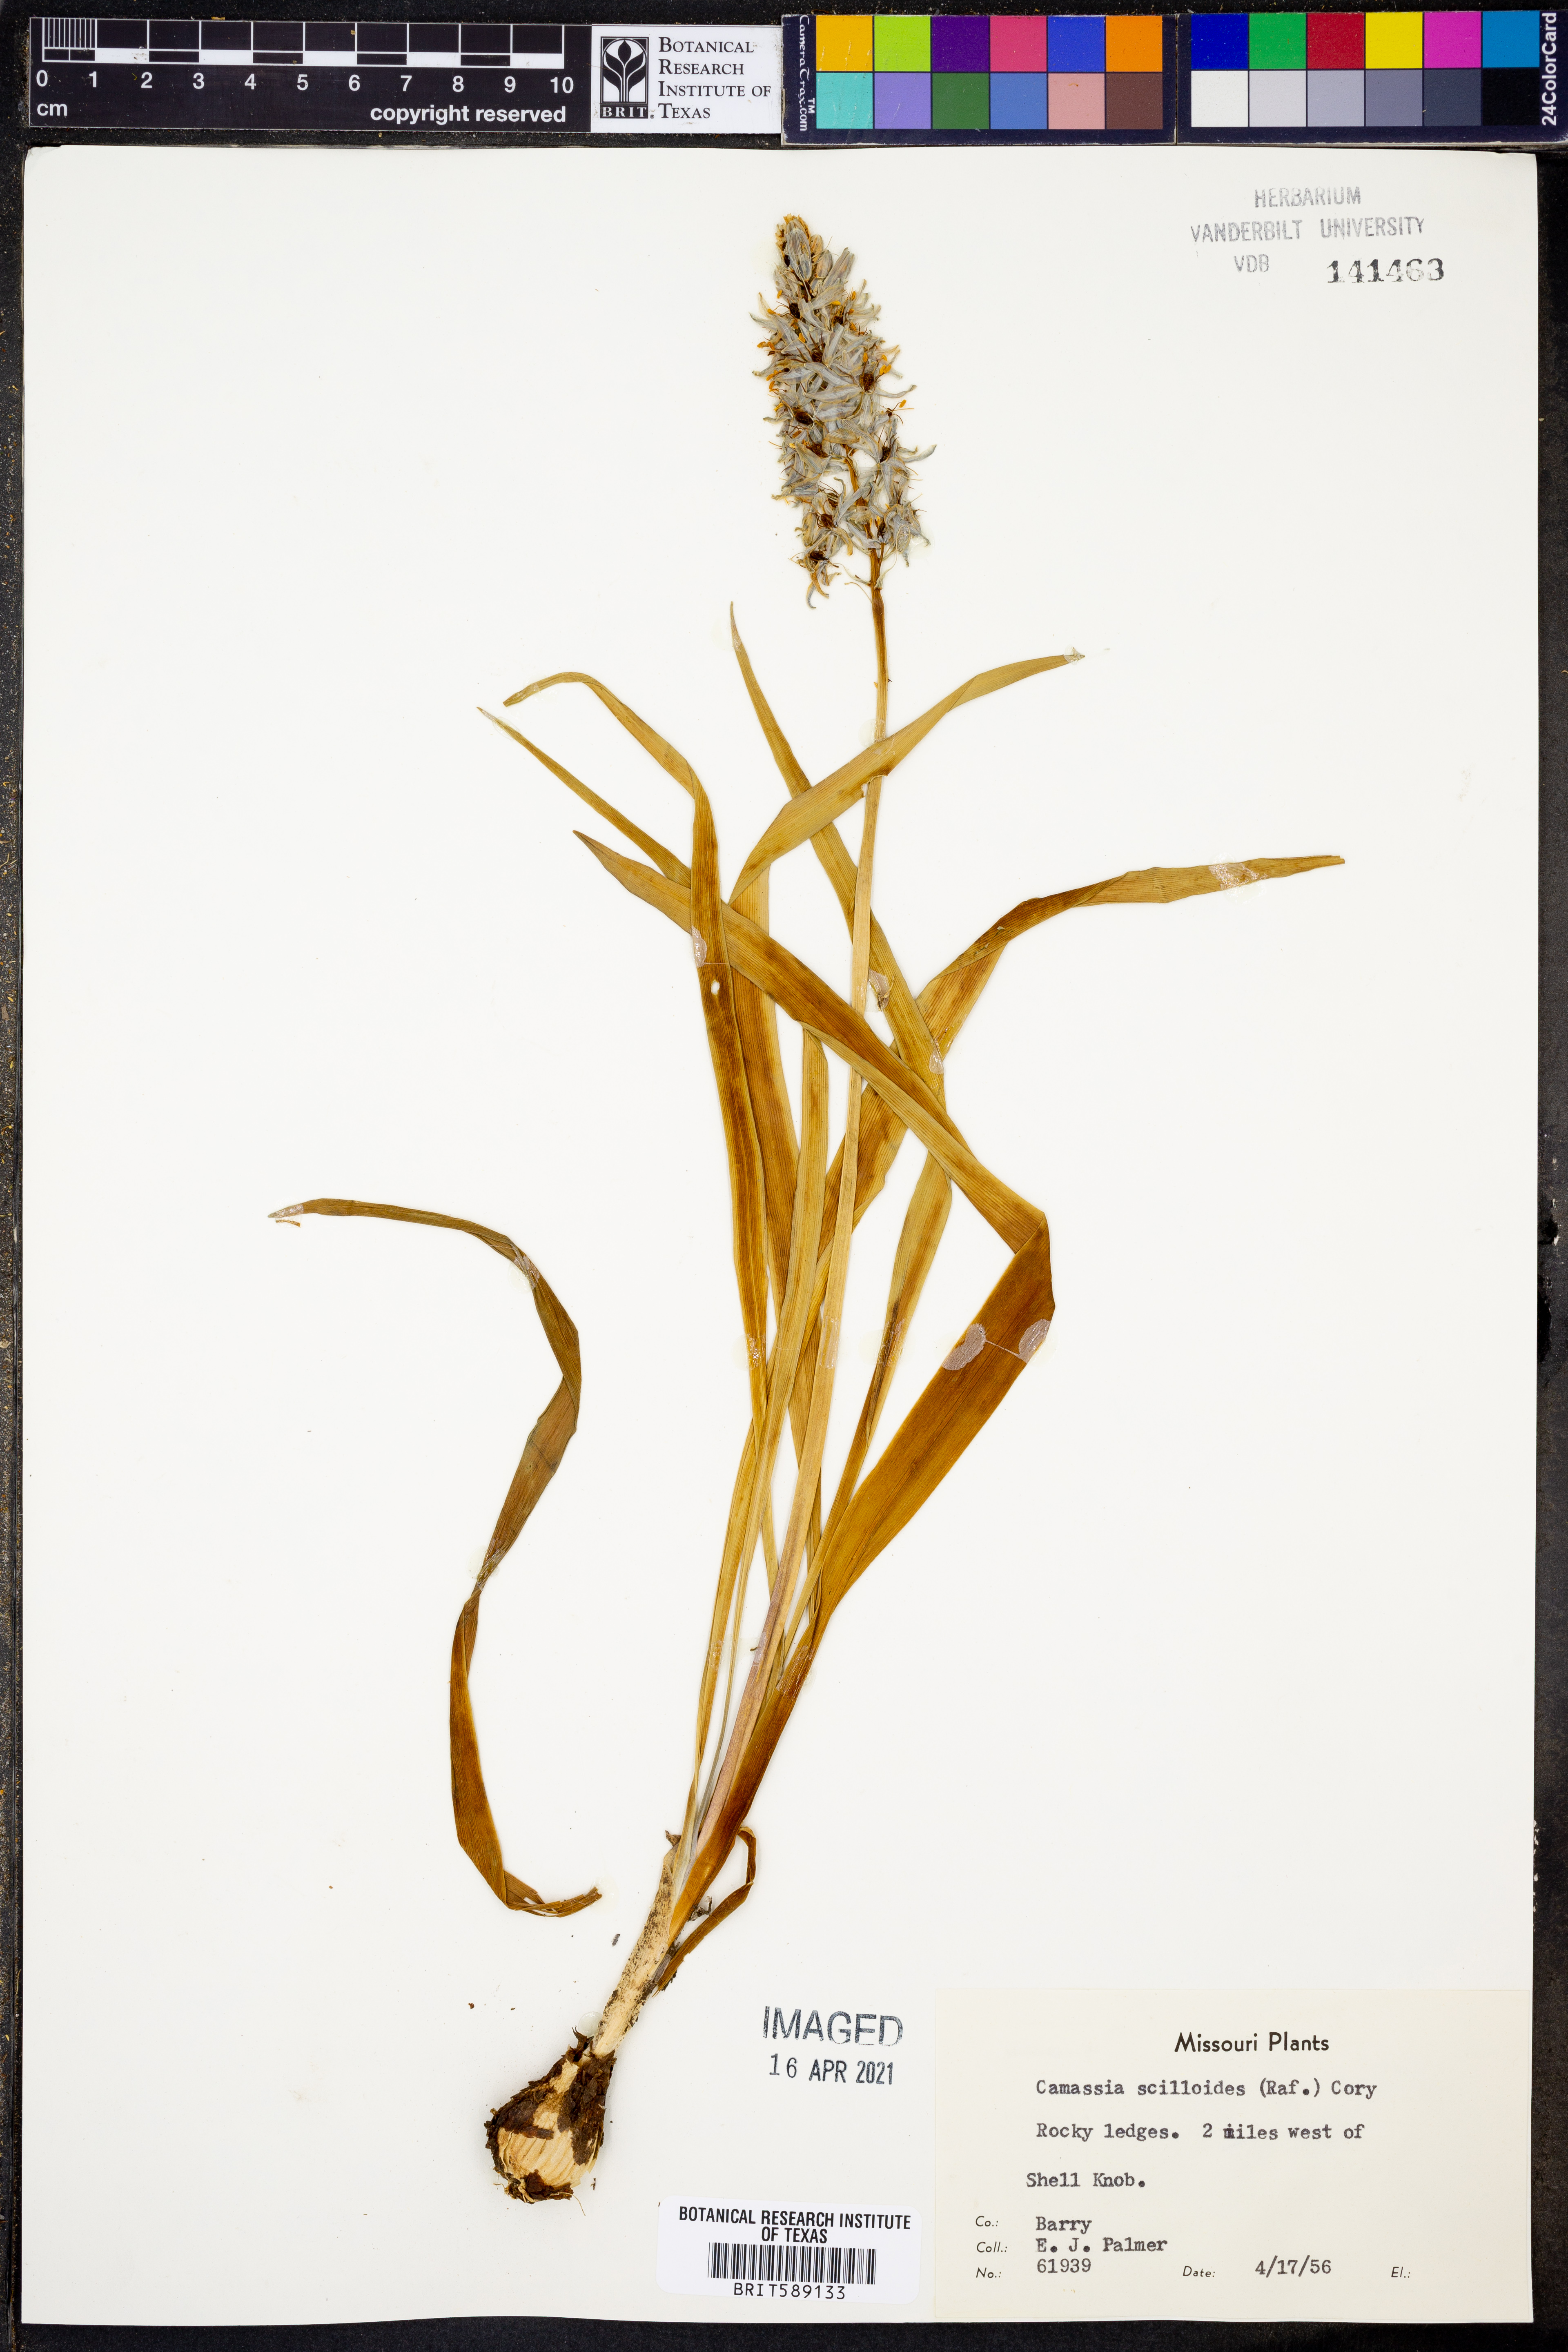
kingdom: Plantae
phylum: Tracheophyta
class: Liliopsida
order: Asparagales
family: Asparagaceae
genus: Camassia
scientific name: Camassia scilloides
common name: Wild hyacinth
